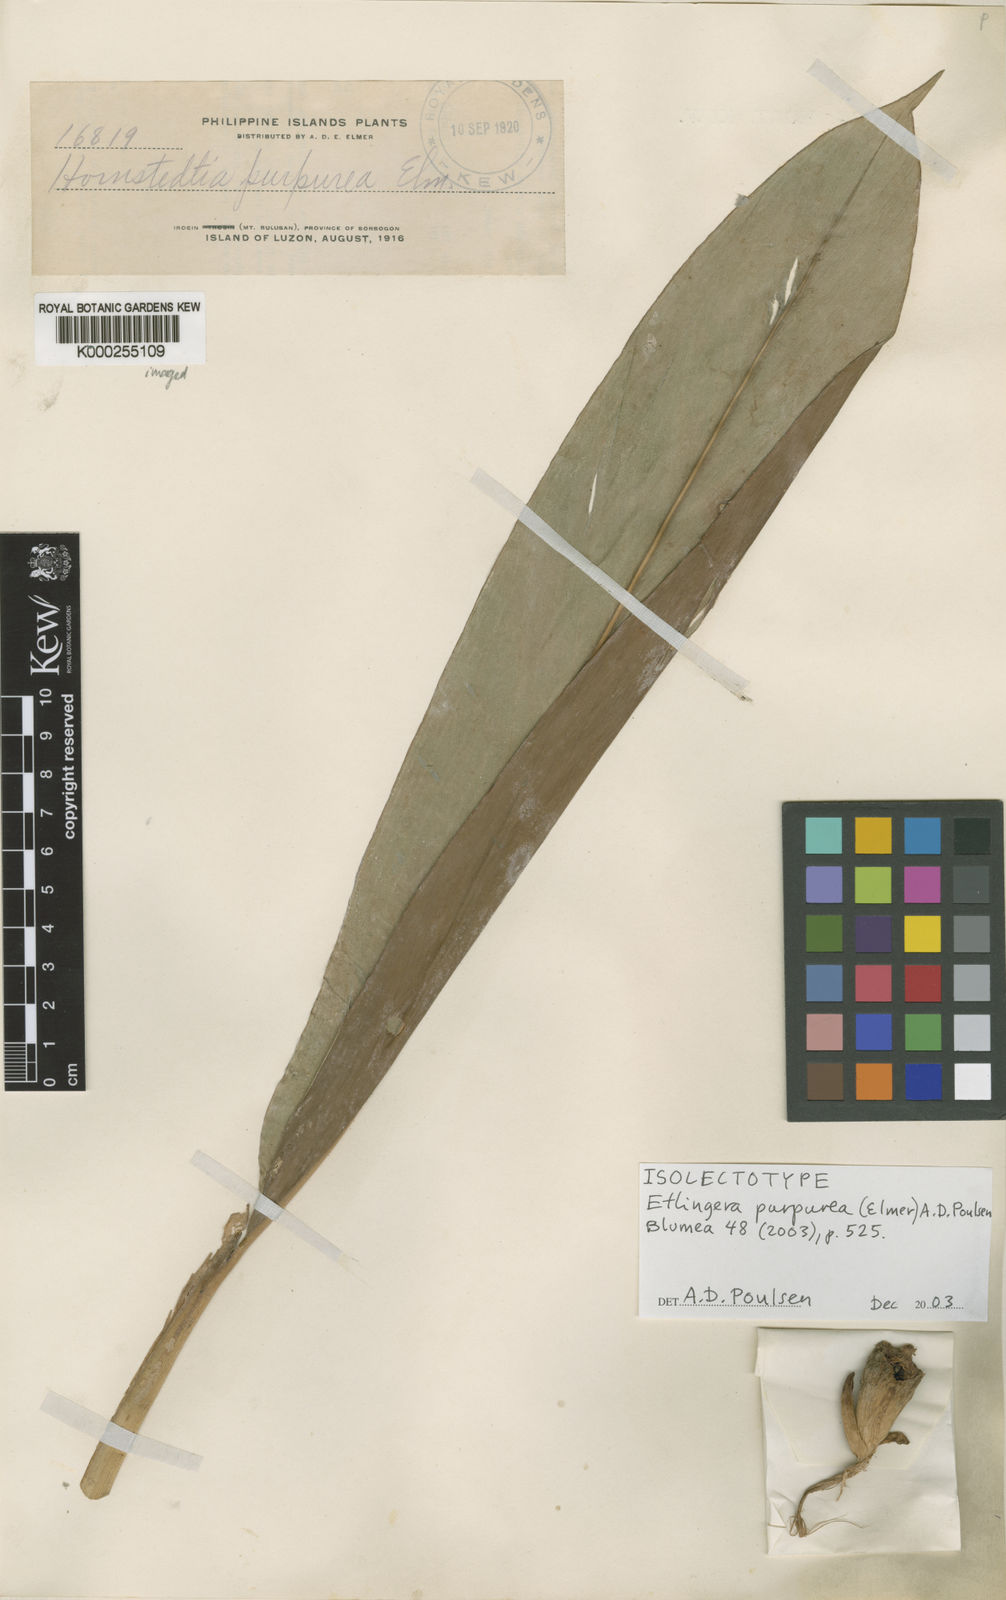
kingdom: Plantae
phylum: Tracheophyta
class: Liliopsida
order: Zingiberales
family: Zingiberaceae
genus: Etlingera
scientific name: Etlingera purpurea
